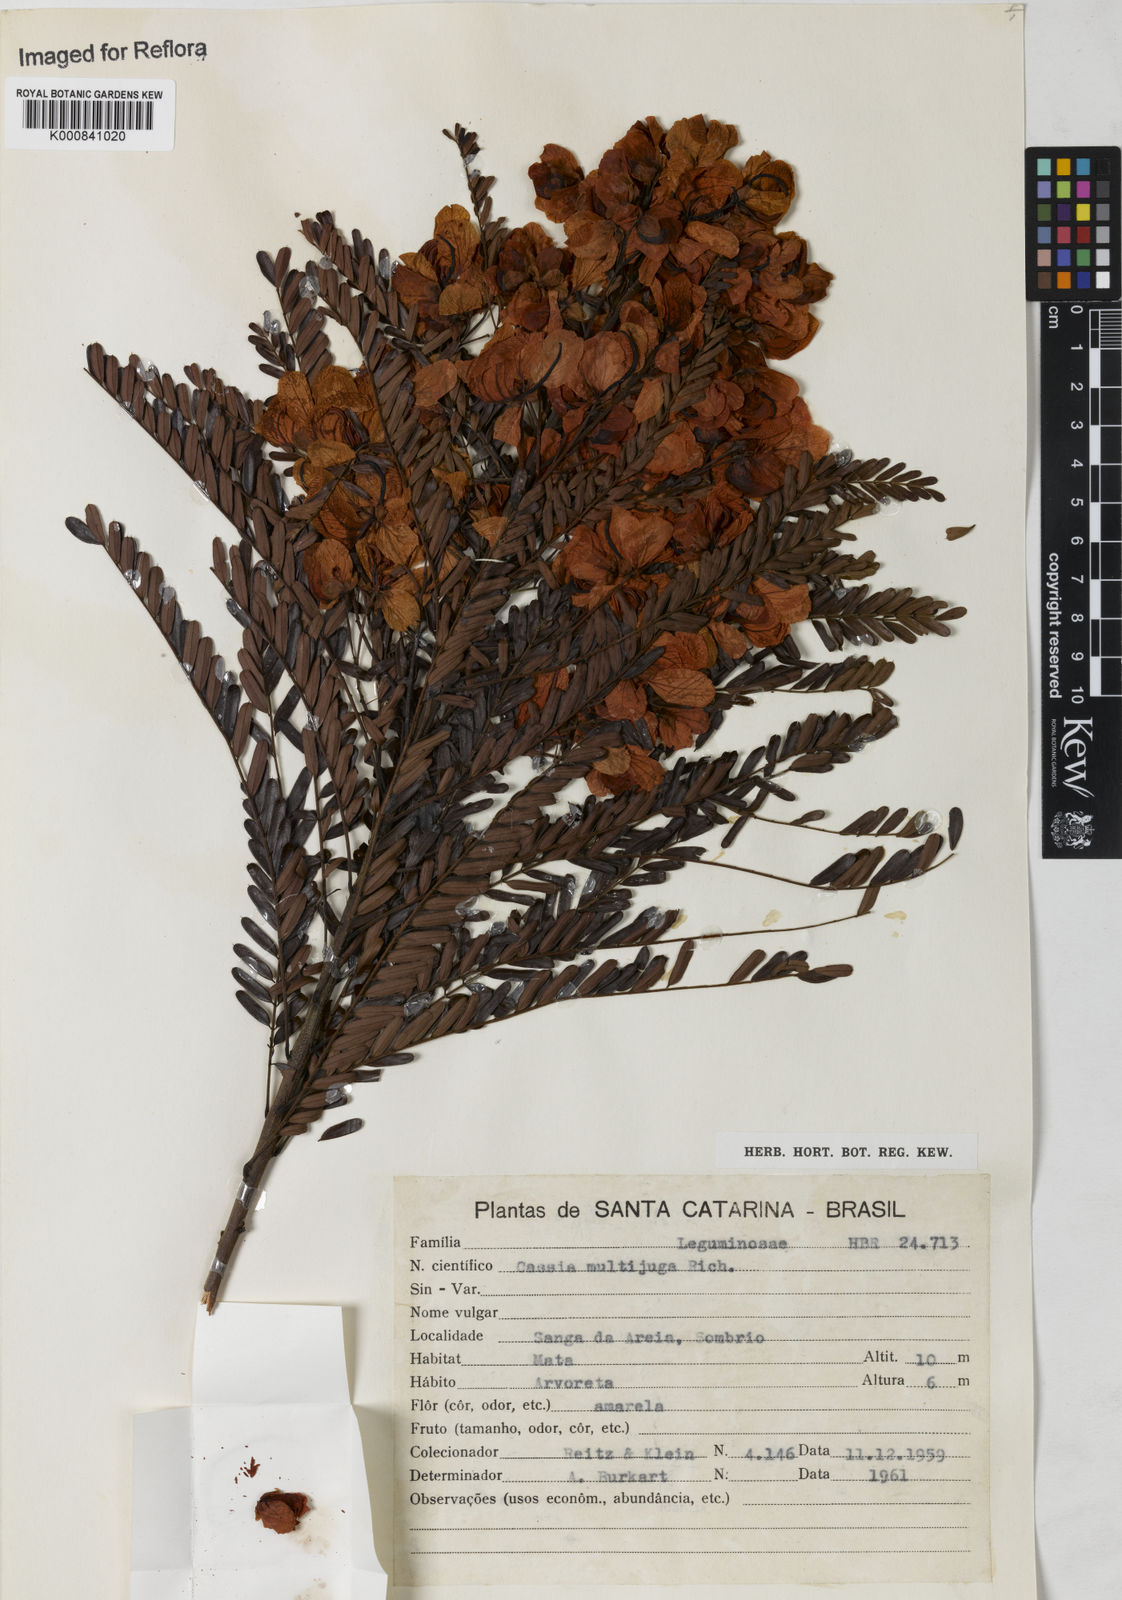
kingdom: Plantae
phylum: Tracheophyta
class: Magnoliopsida
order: Fabales
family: Fabaceae
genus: Senna
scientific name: Senna multijuga
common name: False sicklepod
